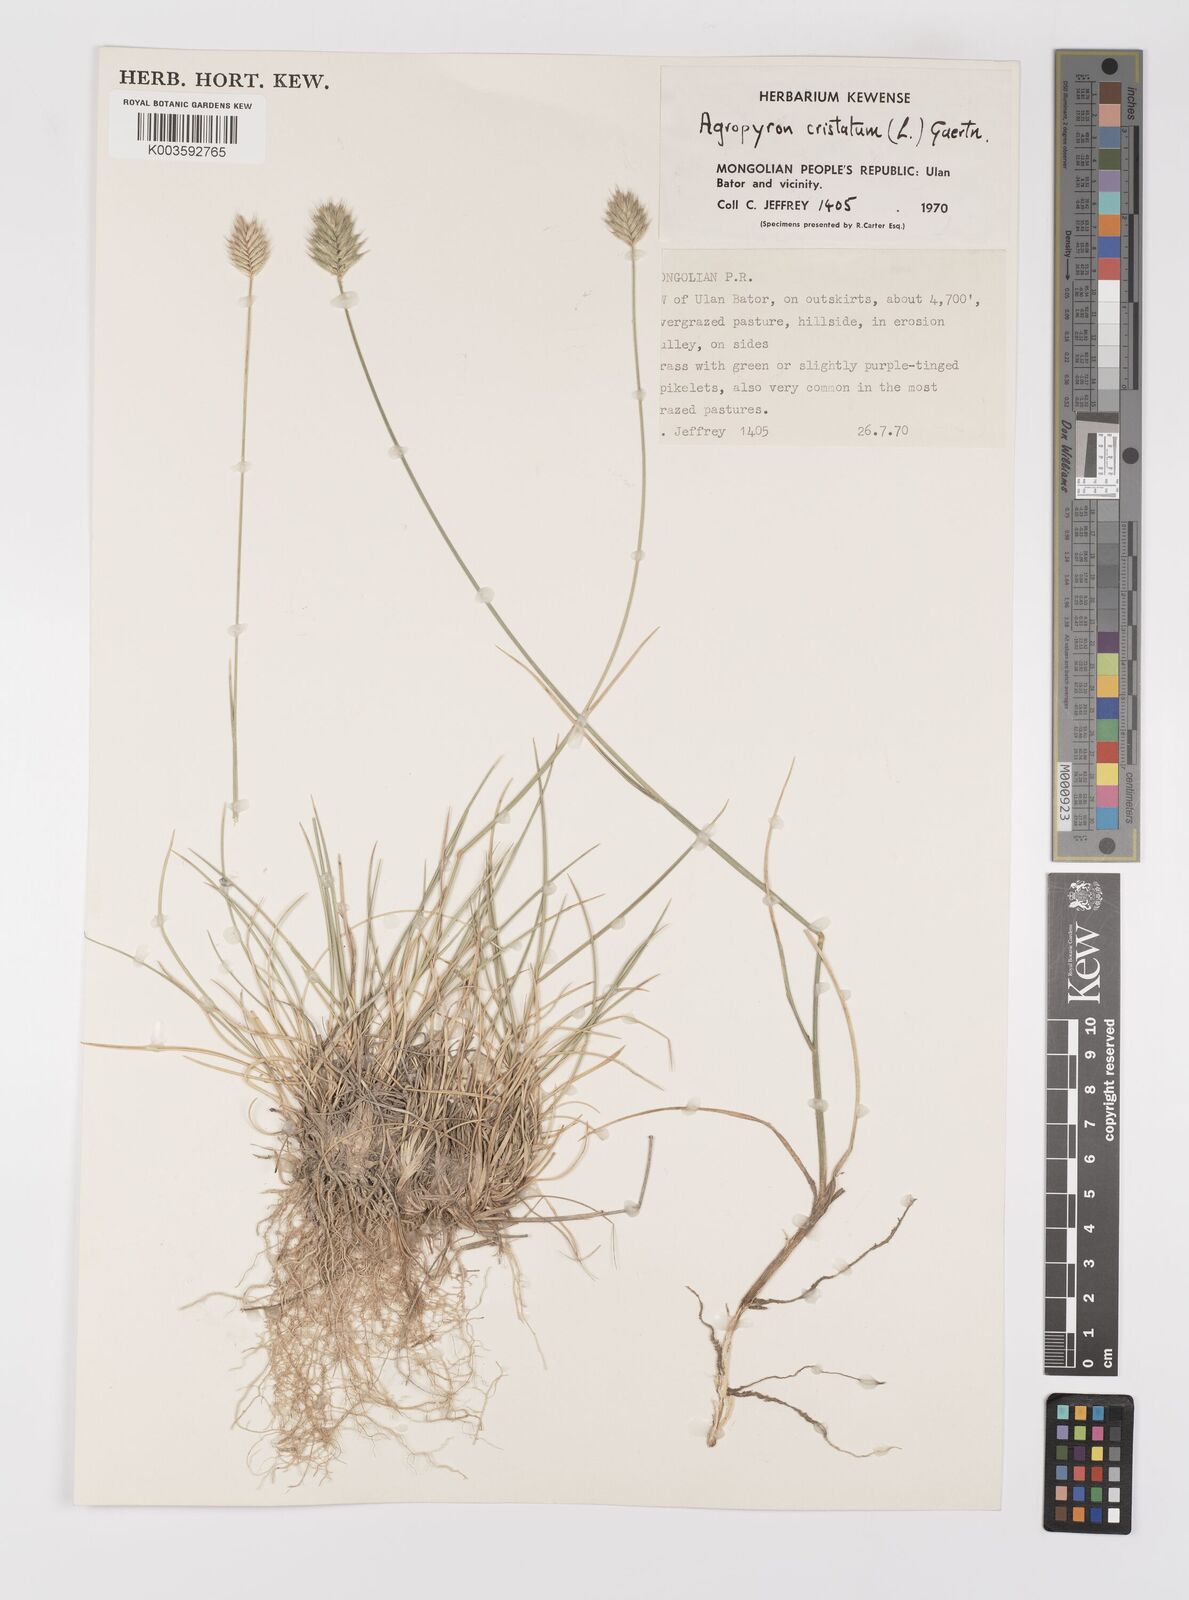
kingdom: Plantae
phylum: Tracheophyta
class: Liliopsida
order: Poales
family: Poaceae
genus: Agropyron
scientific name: Agropyron cristatum
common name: Crested wheatgrass
